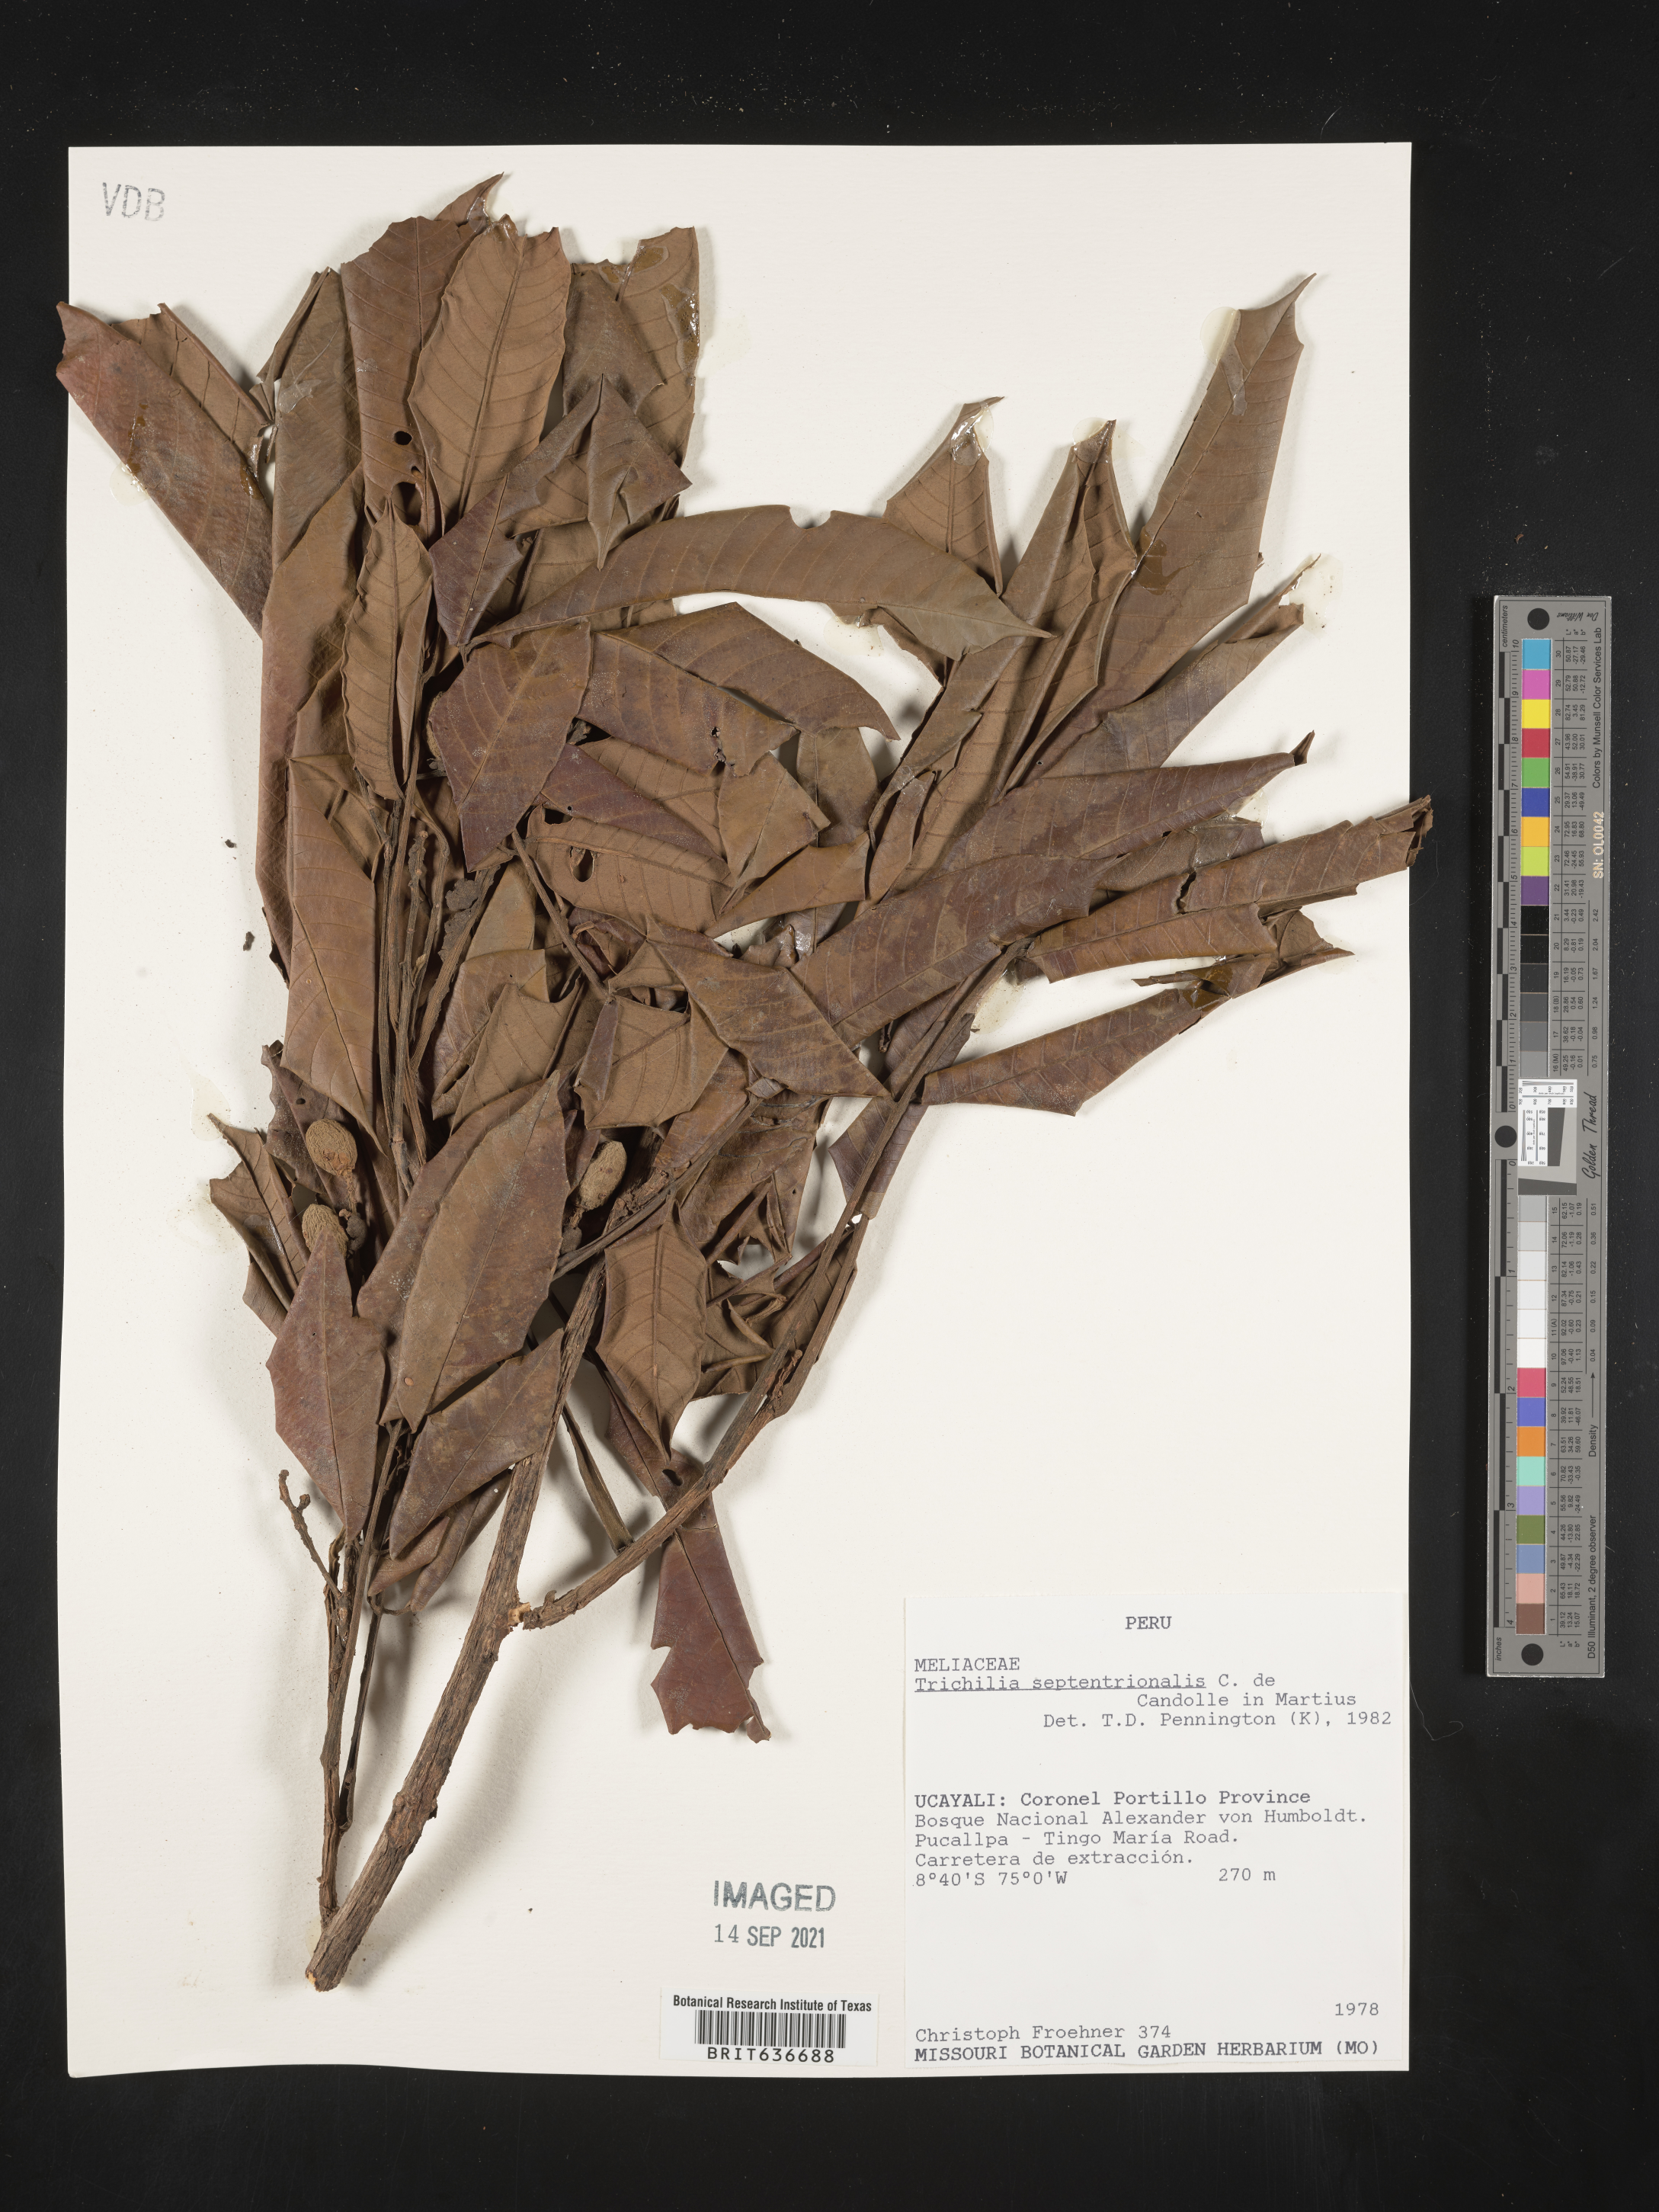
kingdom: Plantae
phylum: Tracheophyta
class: Magnoliopsida
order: Sapindales
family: Meliaceae
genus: Trichilia
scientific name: Trichilia
